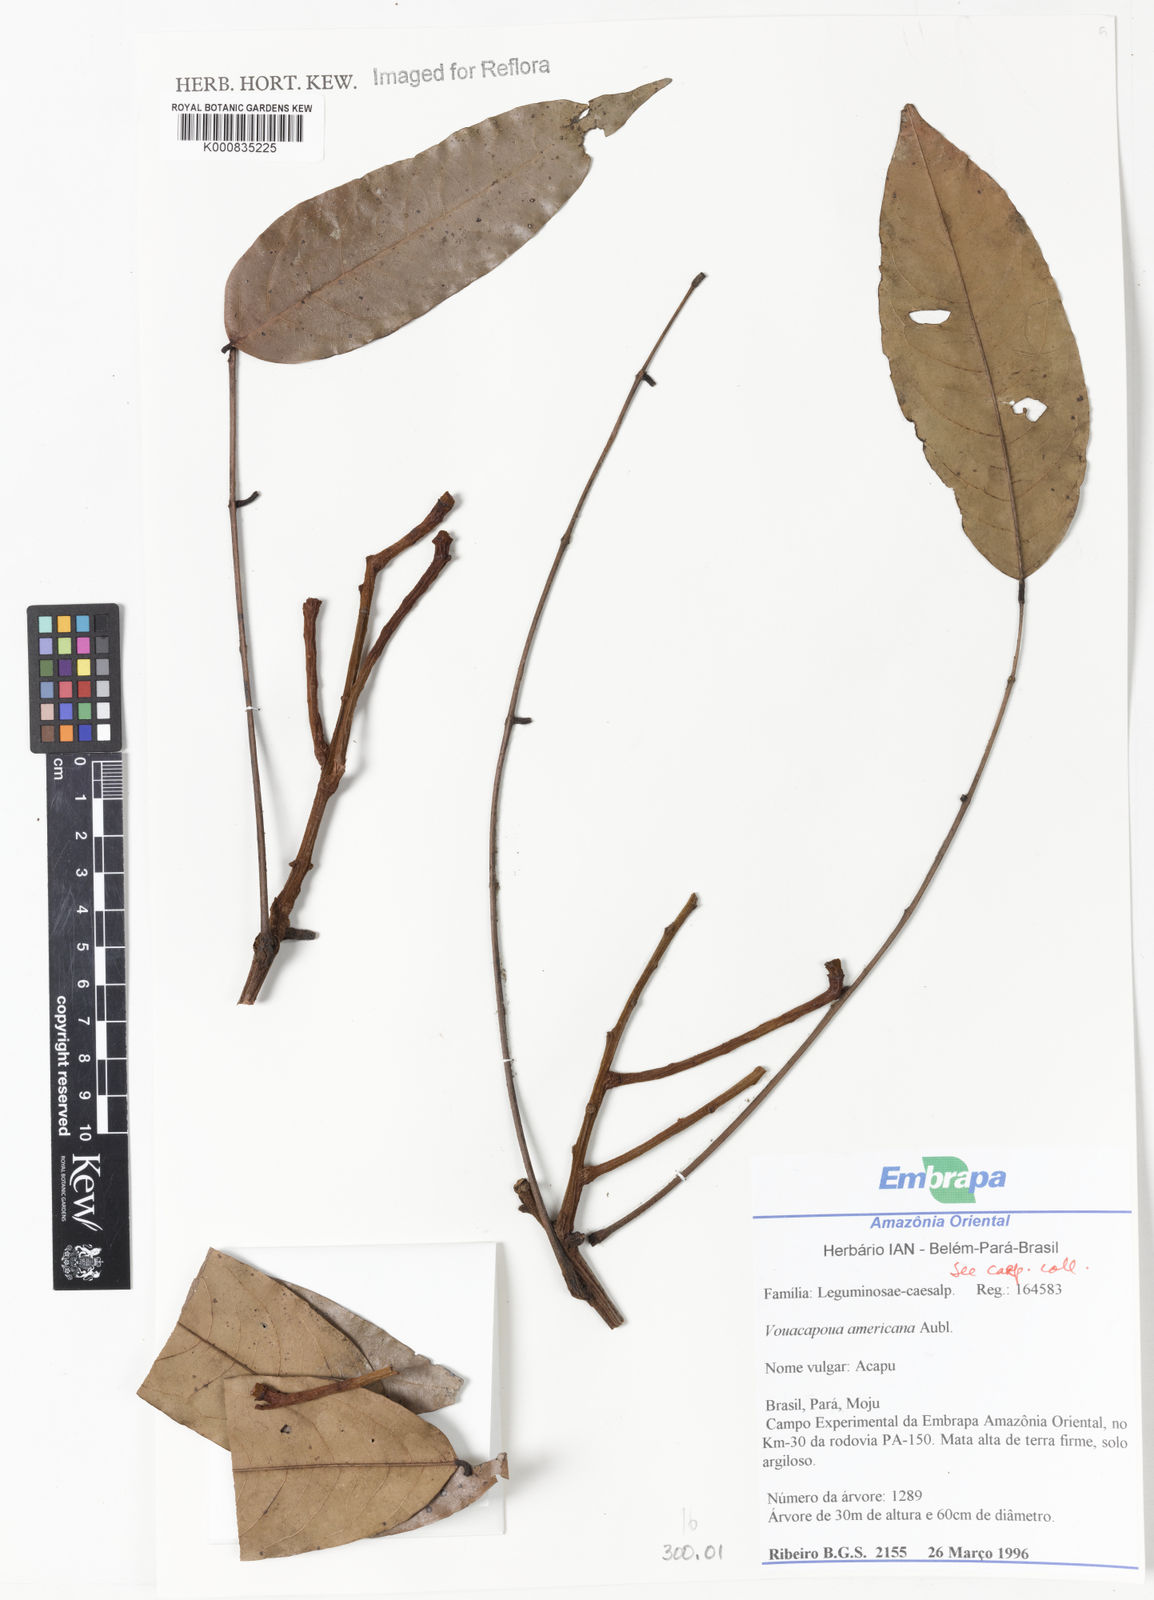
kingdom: Plantae
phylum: Tracheophyta
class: Magnoliopsida
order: Fabales
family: Fabaceae
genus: Vouacapoua
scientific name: Vouacapoua americana
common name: Partridgewood
